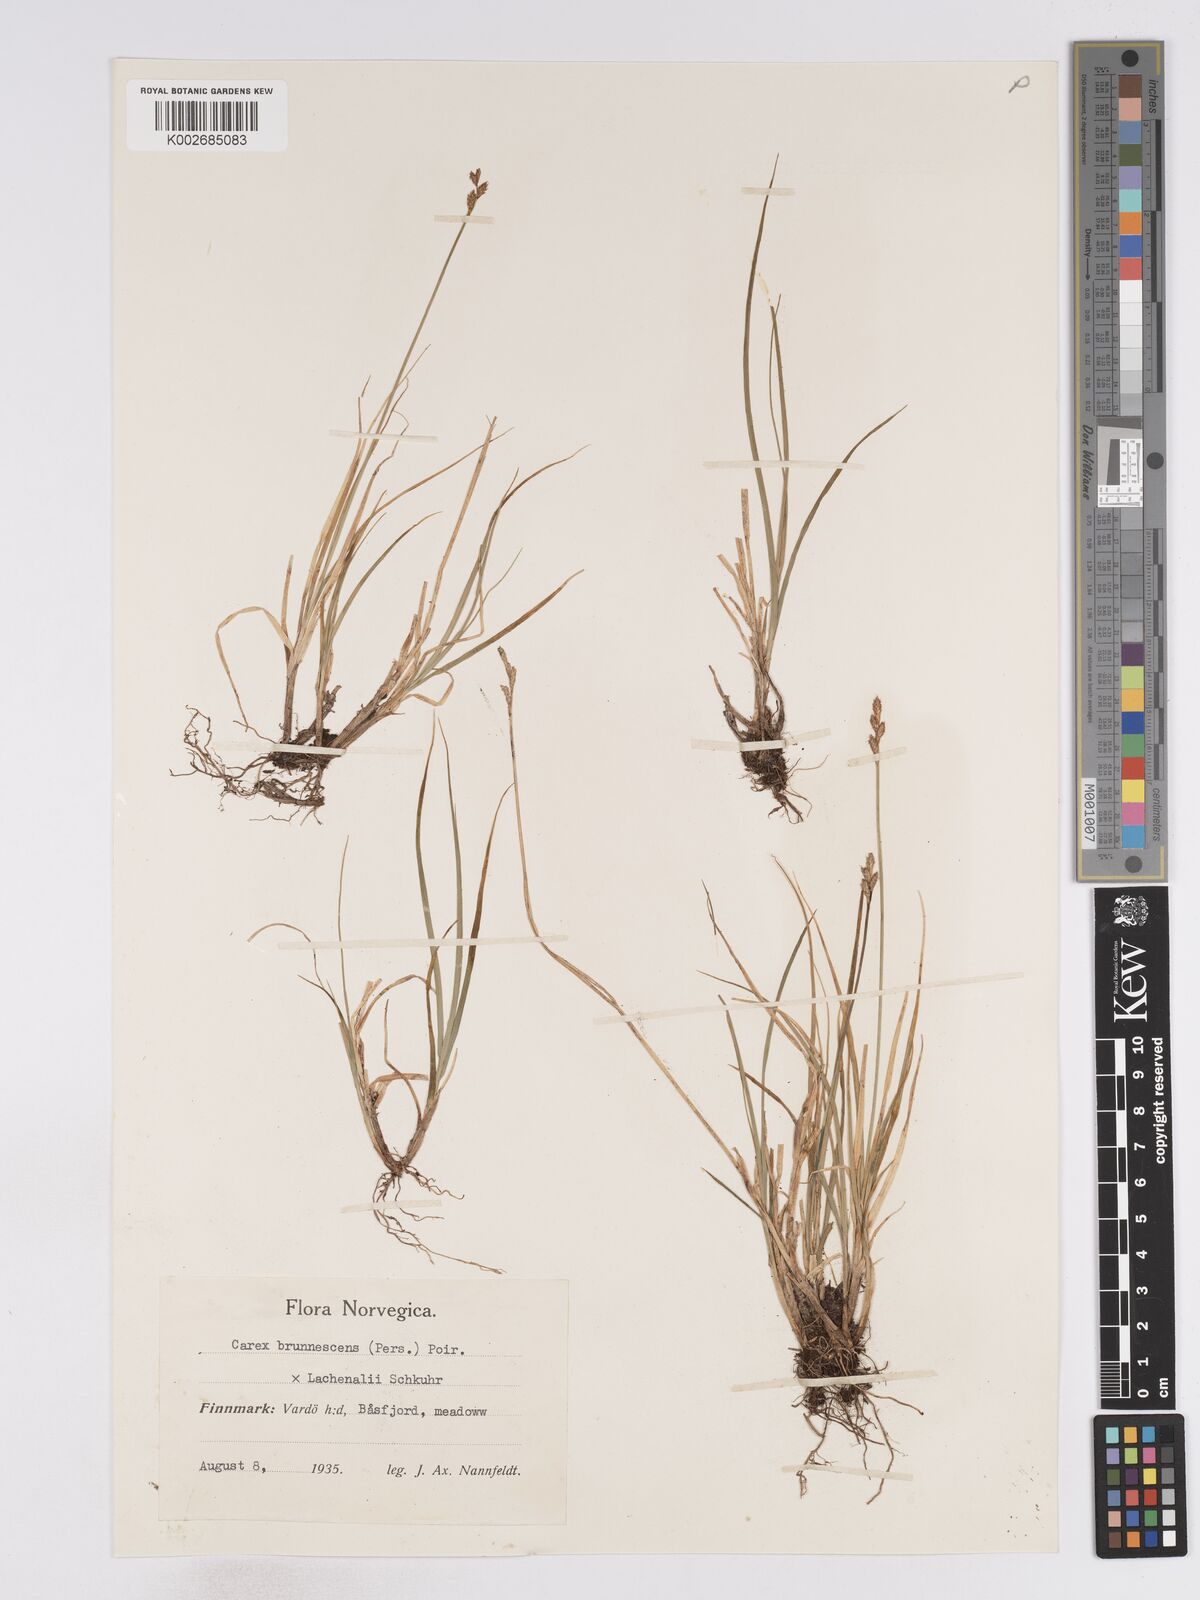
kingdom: Plantae
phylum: Tracheophyta
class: Liliopsida
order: Poales
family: Cyperaceae
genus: Carex
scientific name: Carex brunnescens
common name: Brown sedge
